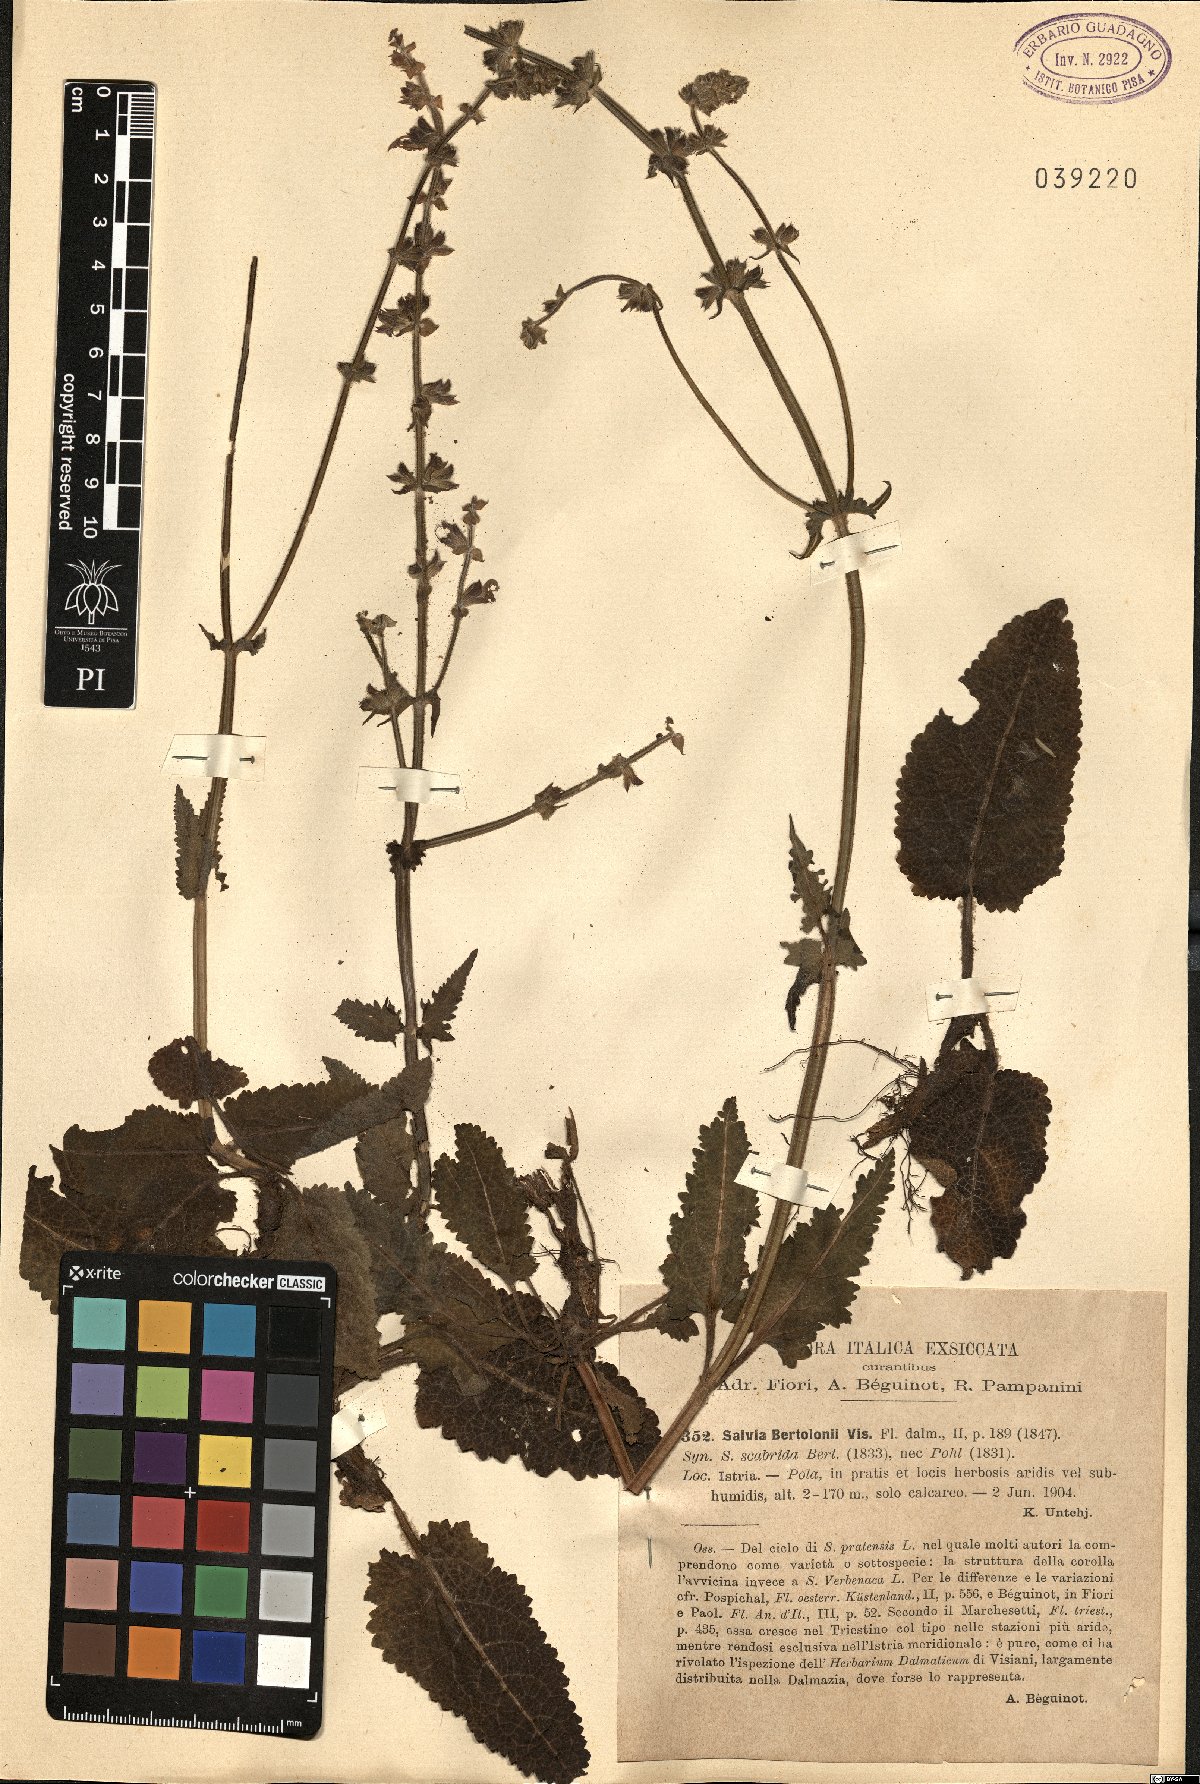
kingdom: Plantae
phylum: Tracheophyta
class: Magnoliopsida
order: Lamiales
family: Lamiaceae
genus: Salvia
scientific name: Salvia pratensis
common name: Meadow sage
